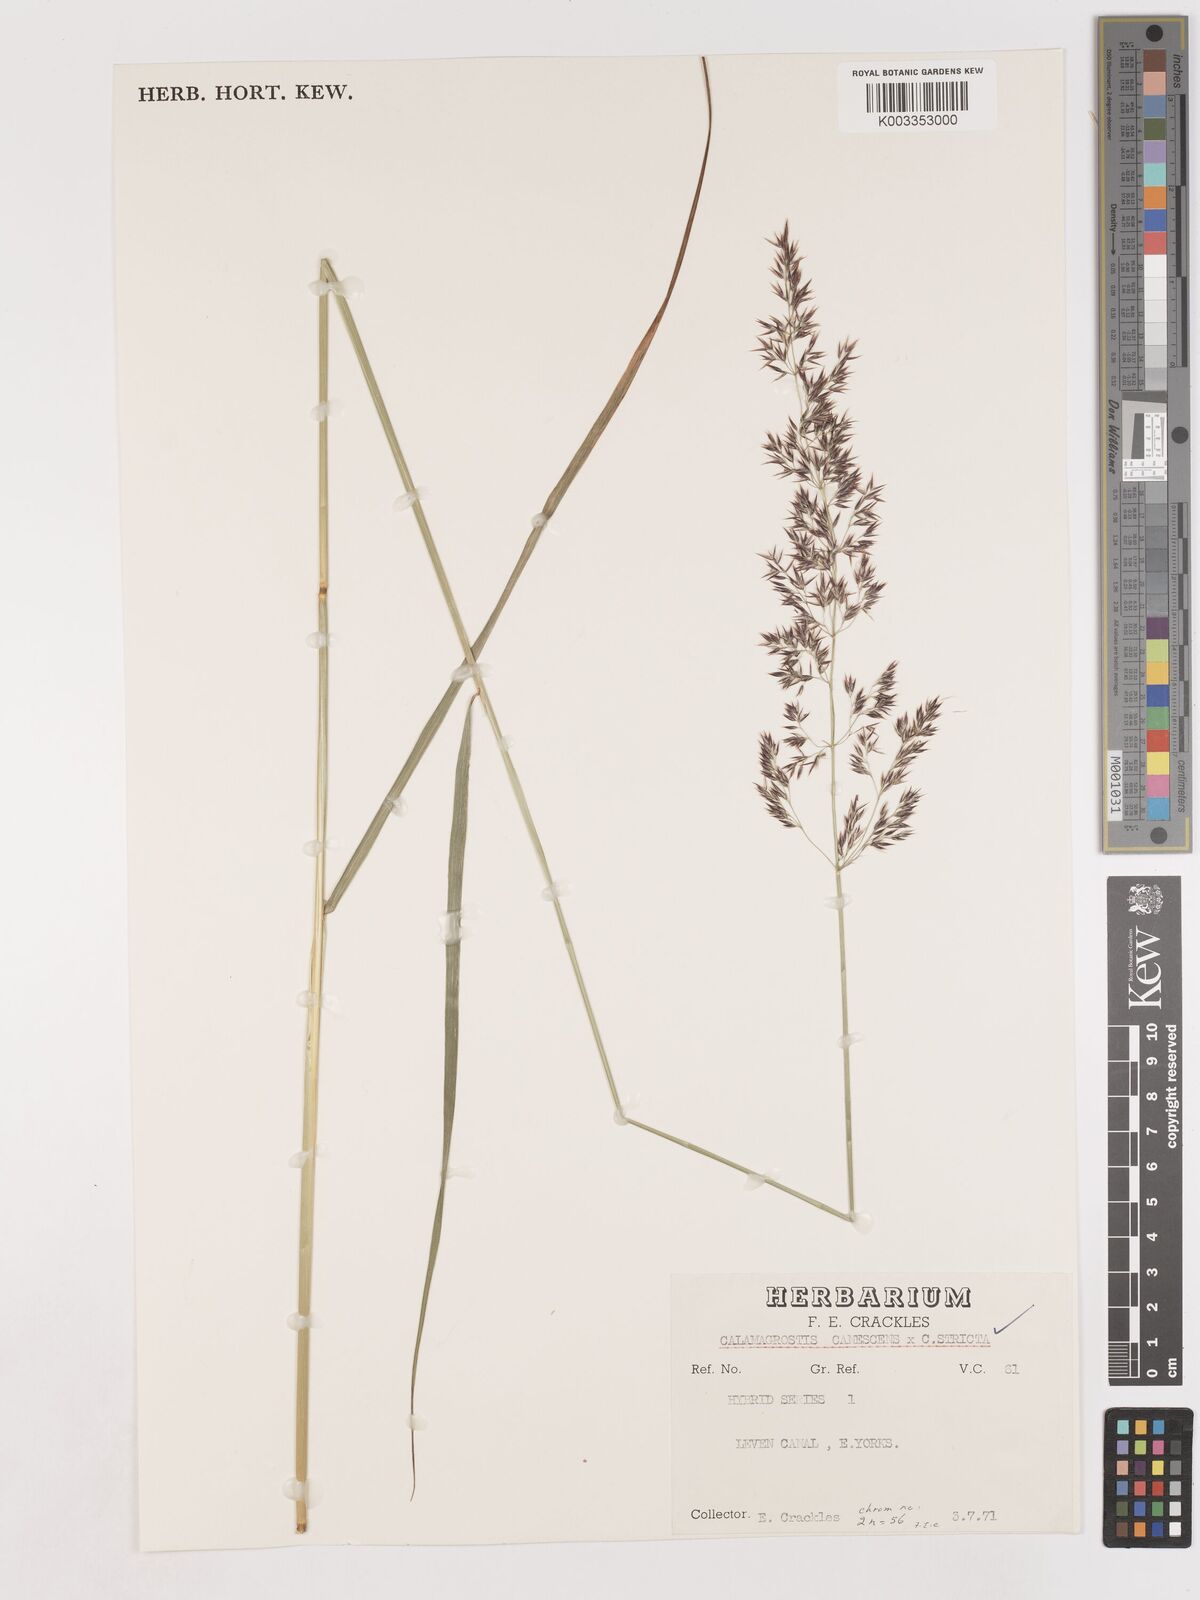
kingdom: Plantae
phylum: Tracheophyta
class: Liliopsida
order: Poales
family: Poaceae
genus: Calamagrostis
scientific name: Calamagrostis canescens
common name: Purple small-reed
